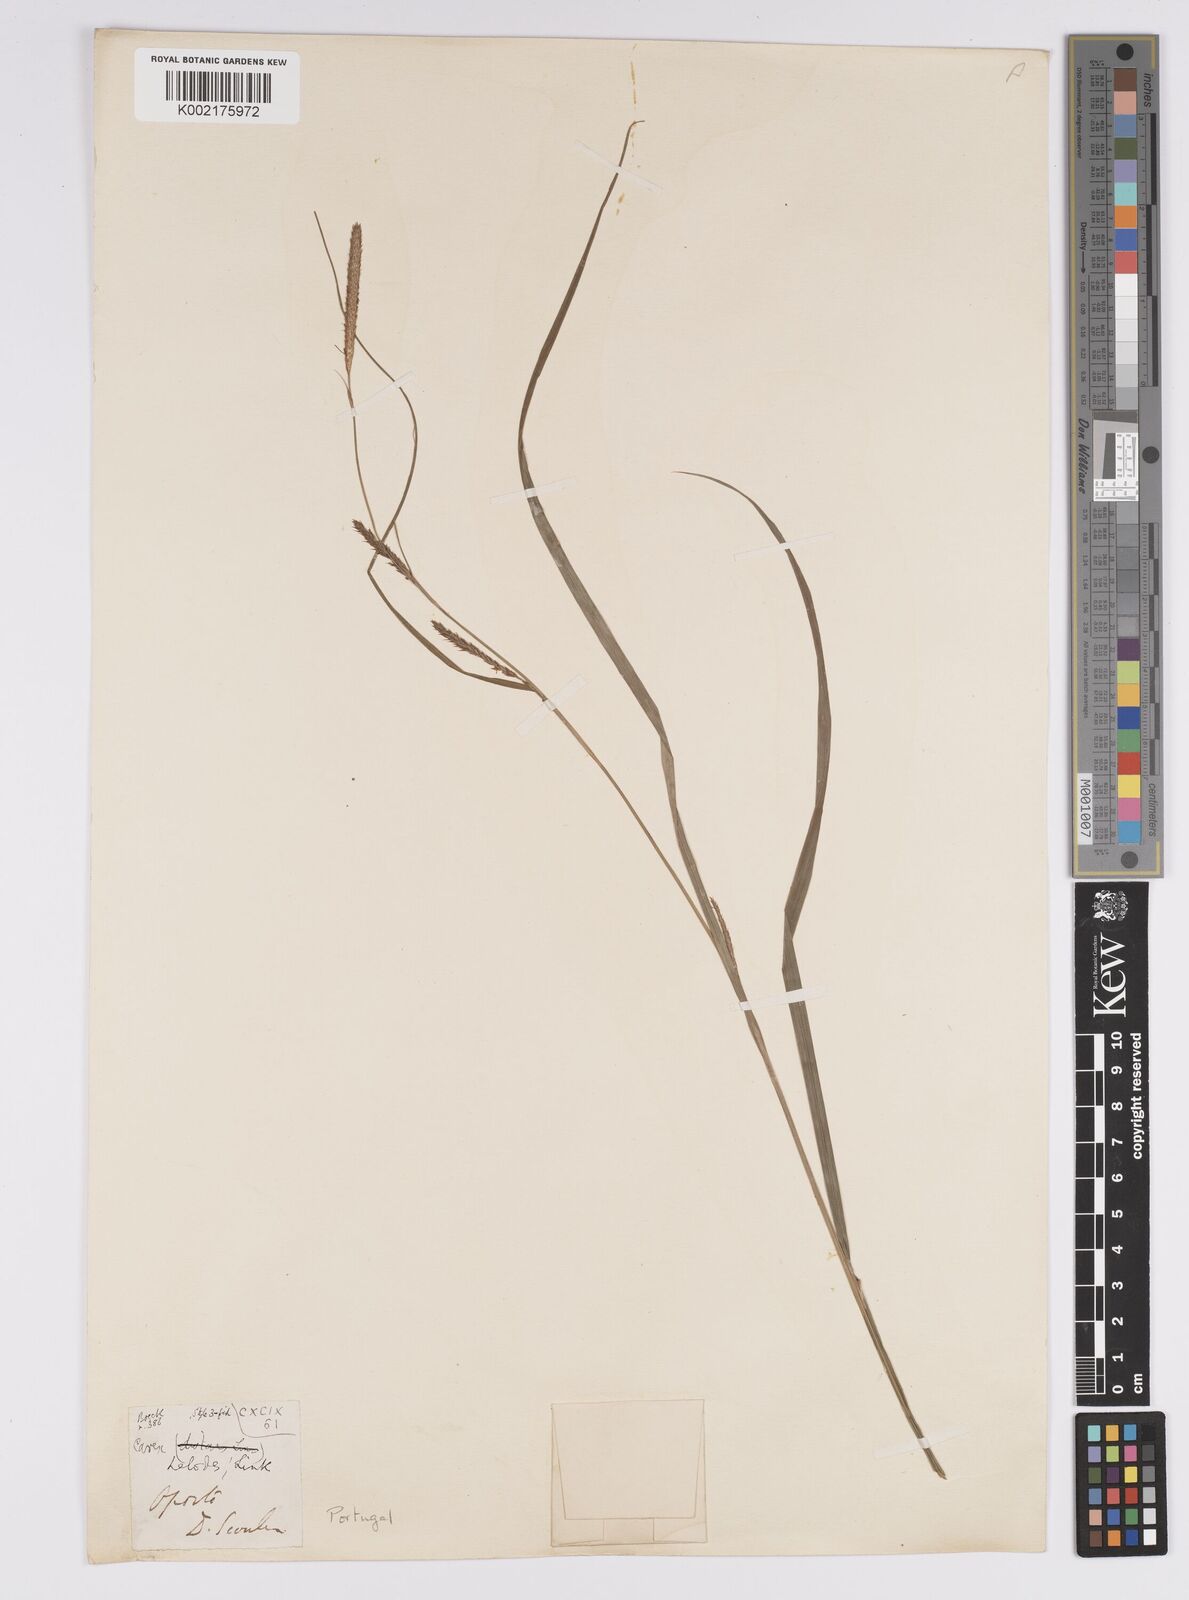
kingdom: Plantae
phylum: Tracheophyta
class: Liliopsida
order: Poales
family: Cyperaceae
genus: Carex
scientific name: Carex laevigata
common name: Smooth-stalked sedge
